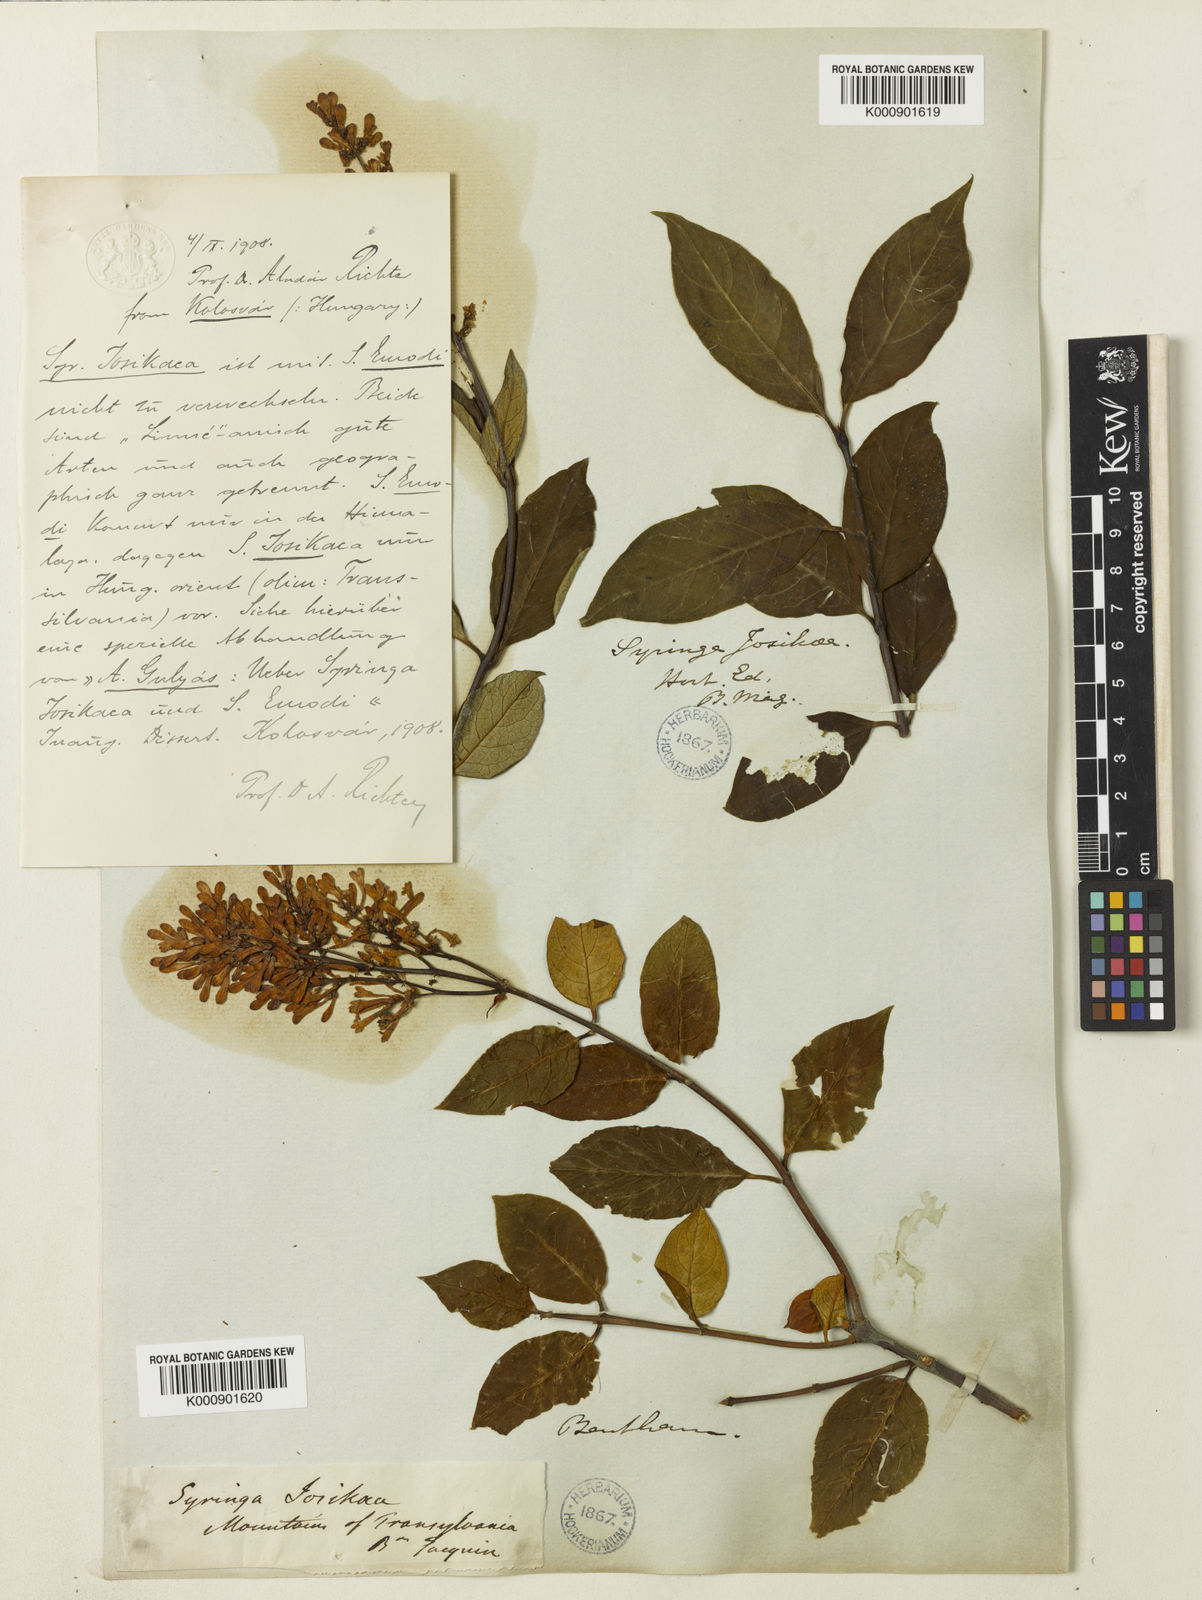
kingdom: Plantae
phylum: Tracheophyta
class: Magnoliopsida
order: Lamiales
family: Oleaceae
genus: Syringa
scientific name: Syringa
